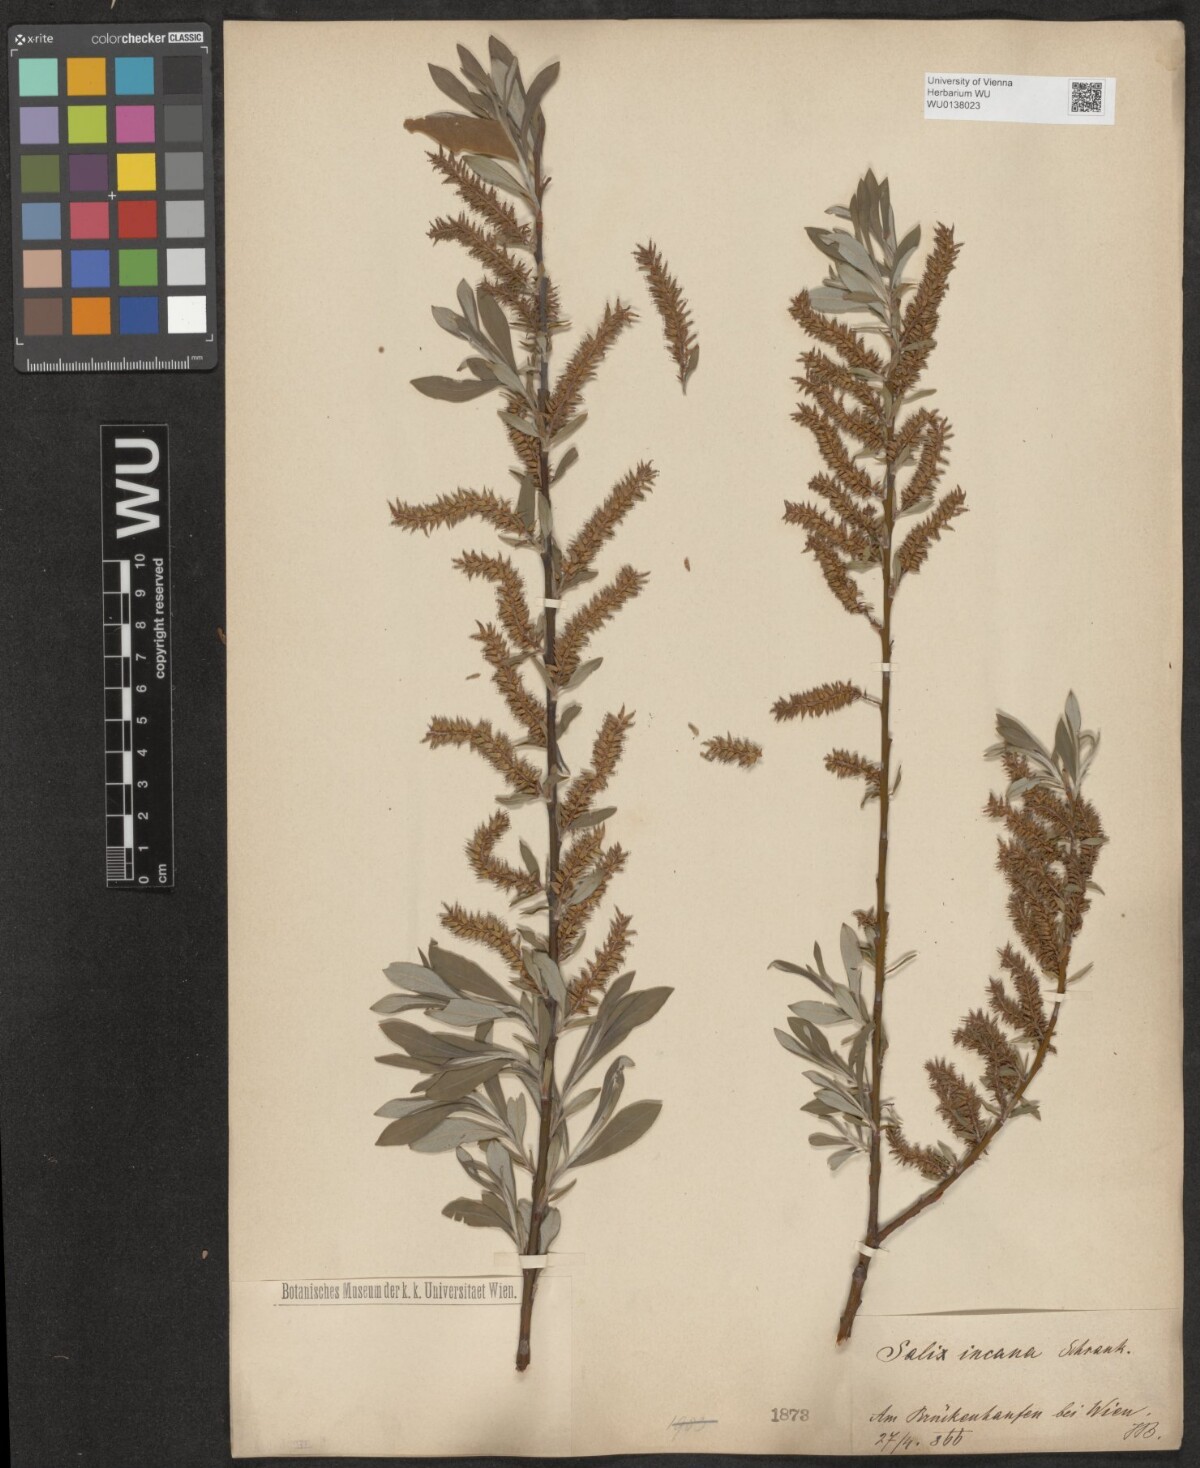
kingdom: Plantae
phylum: Tracheophyta
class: Magnoliopsida
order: Malpighiales
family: Salicaceae
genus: Salix
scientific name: Salix eleagnos
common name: Elaeagnus willow
